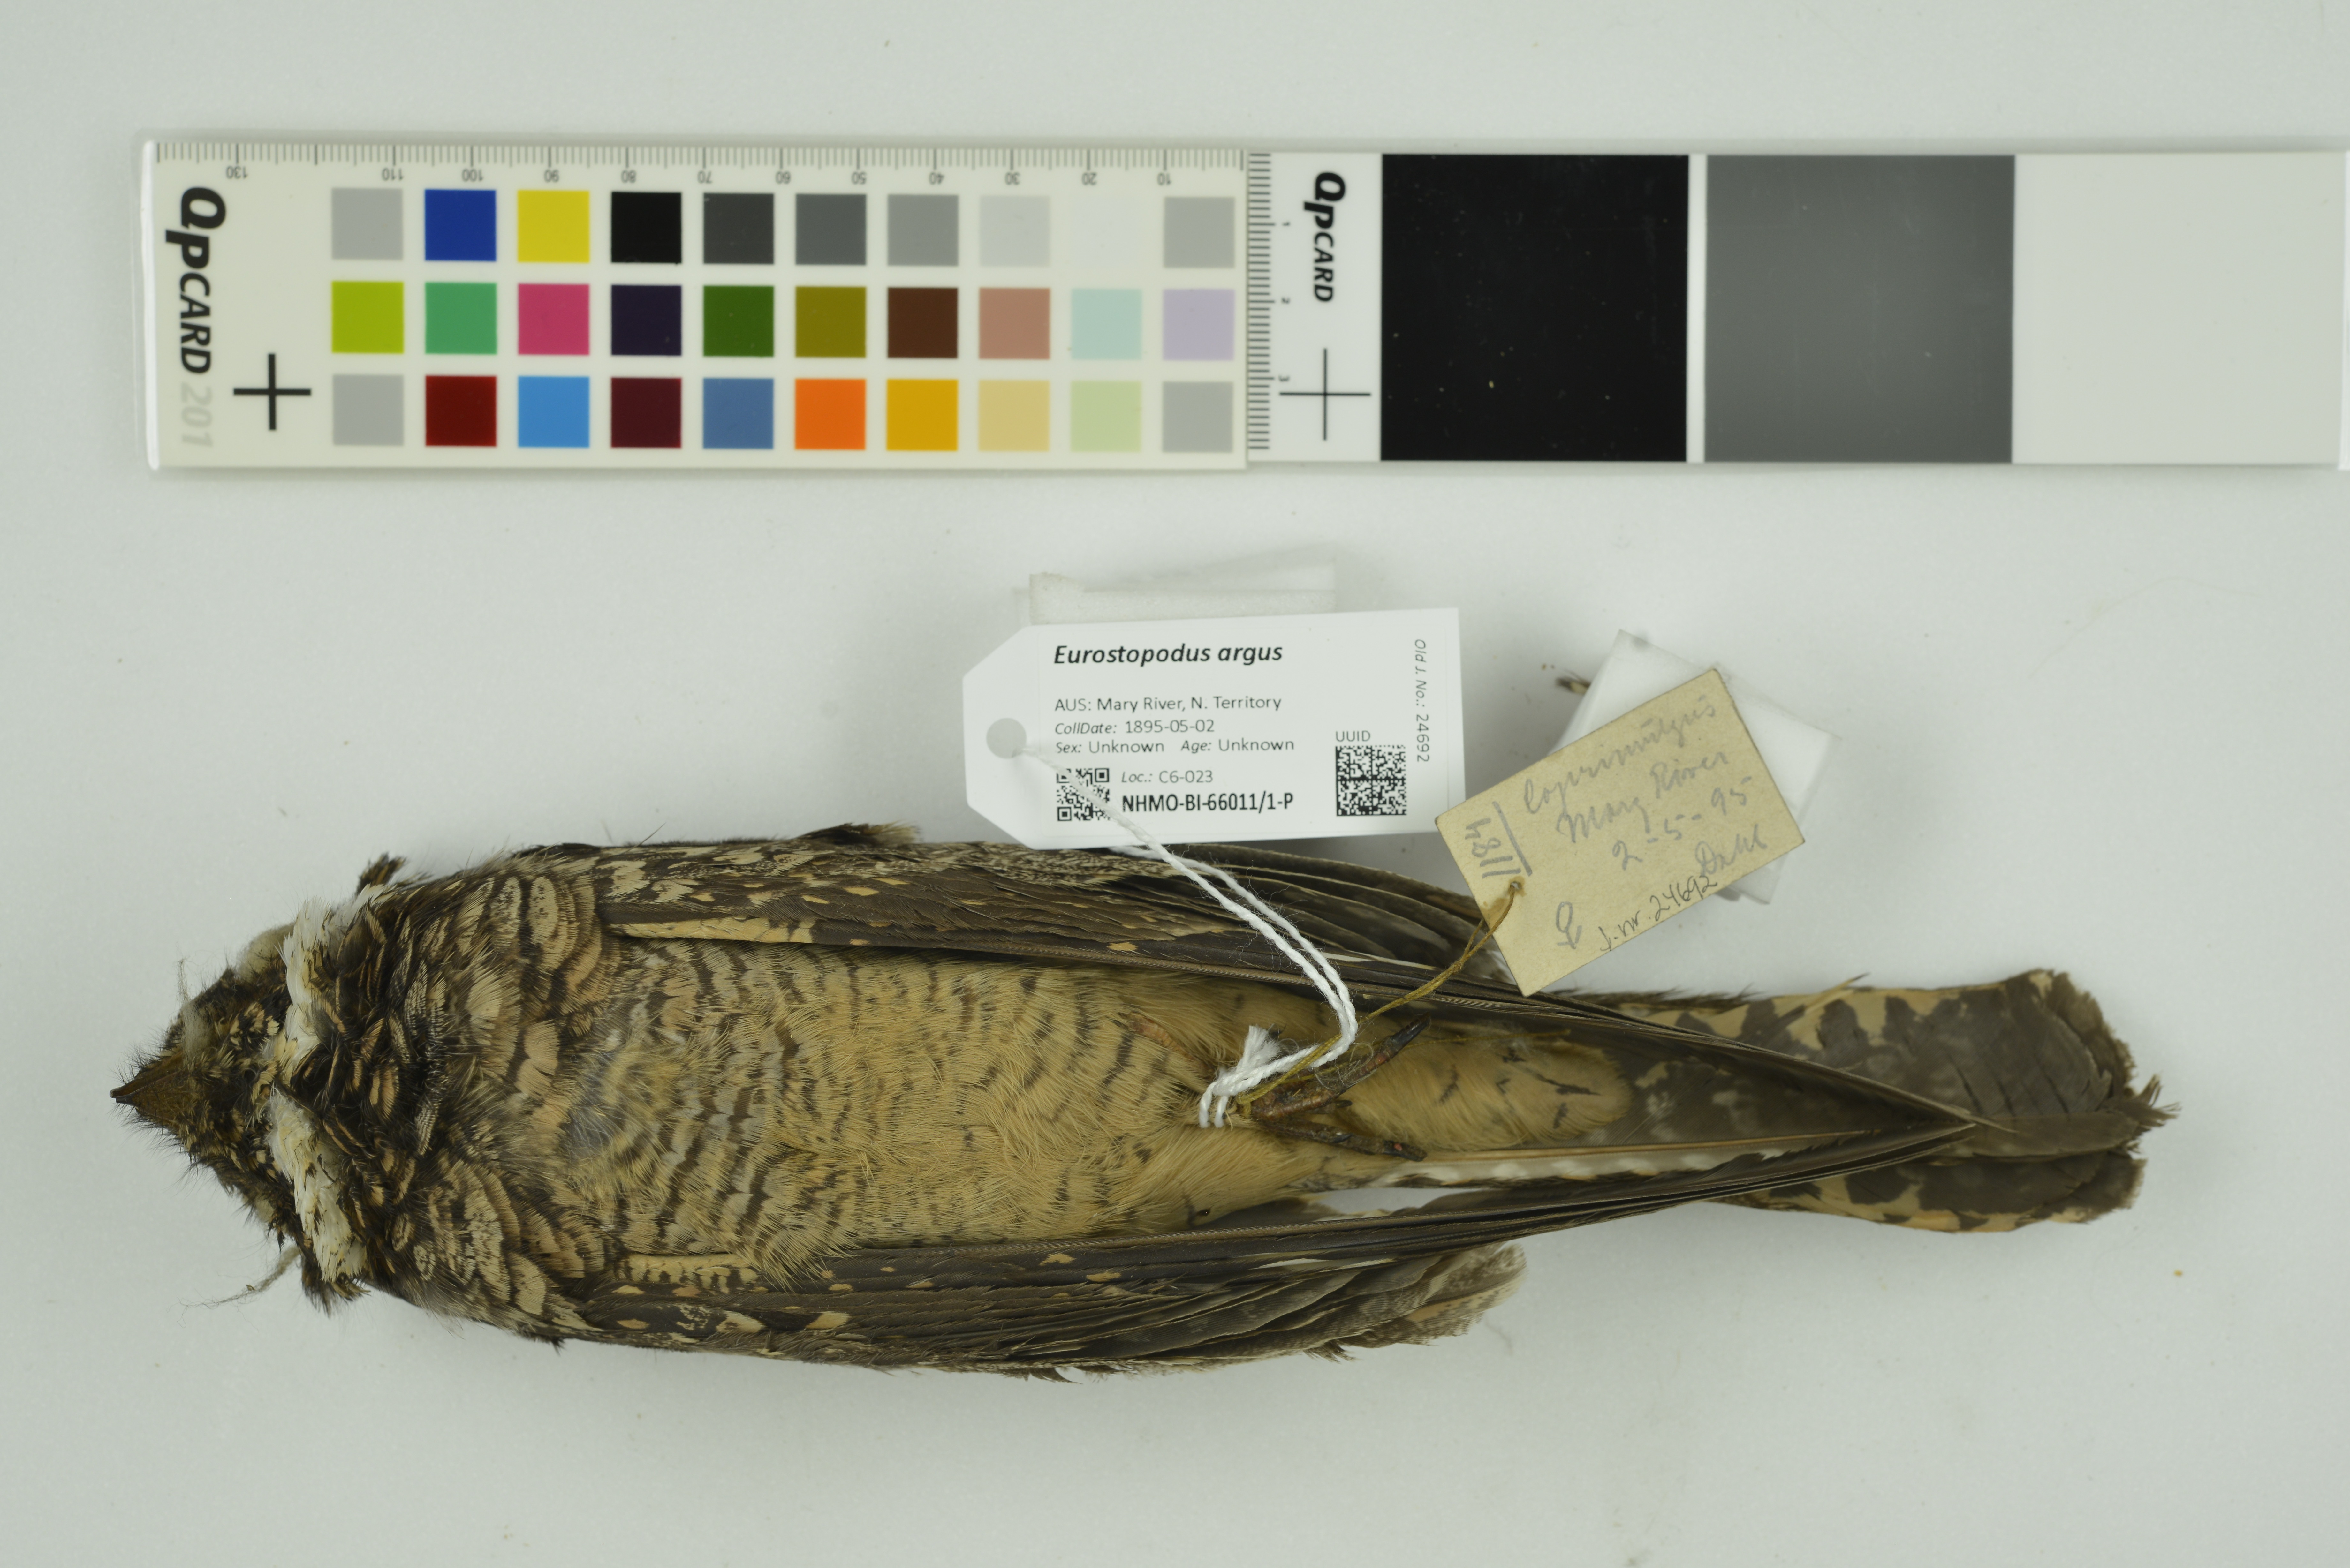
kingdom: Animalia
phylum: Chordata
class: Aves
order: Caprimulgiformes
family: Caprimulgidae
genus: Eurostopodus
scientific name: Eurostopodus argus
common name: Spotted nightjar
